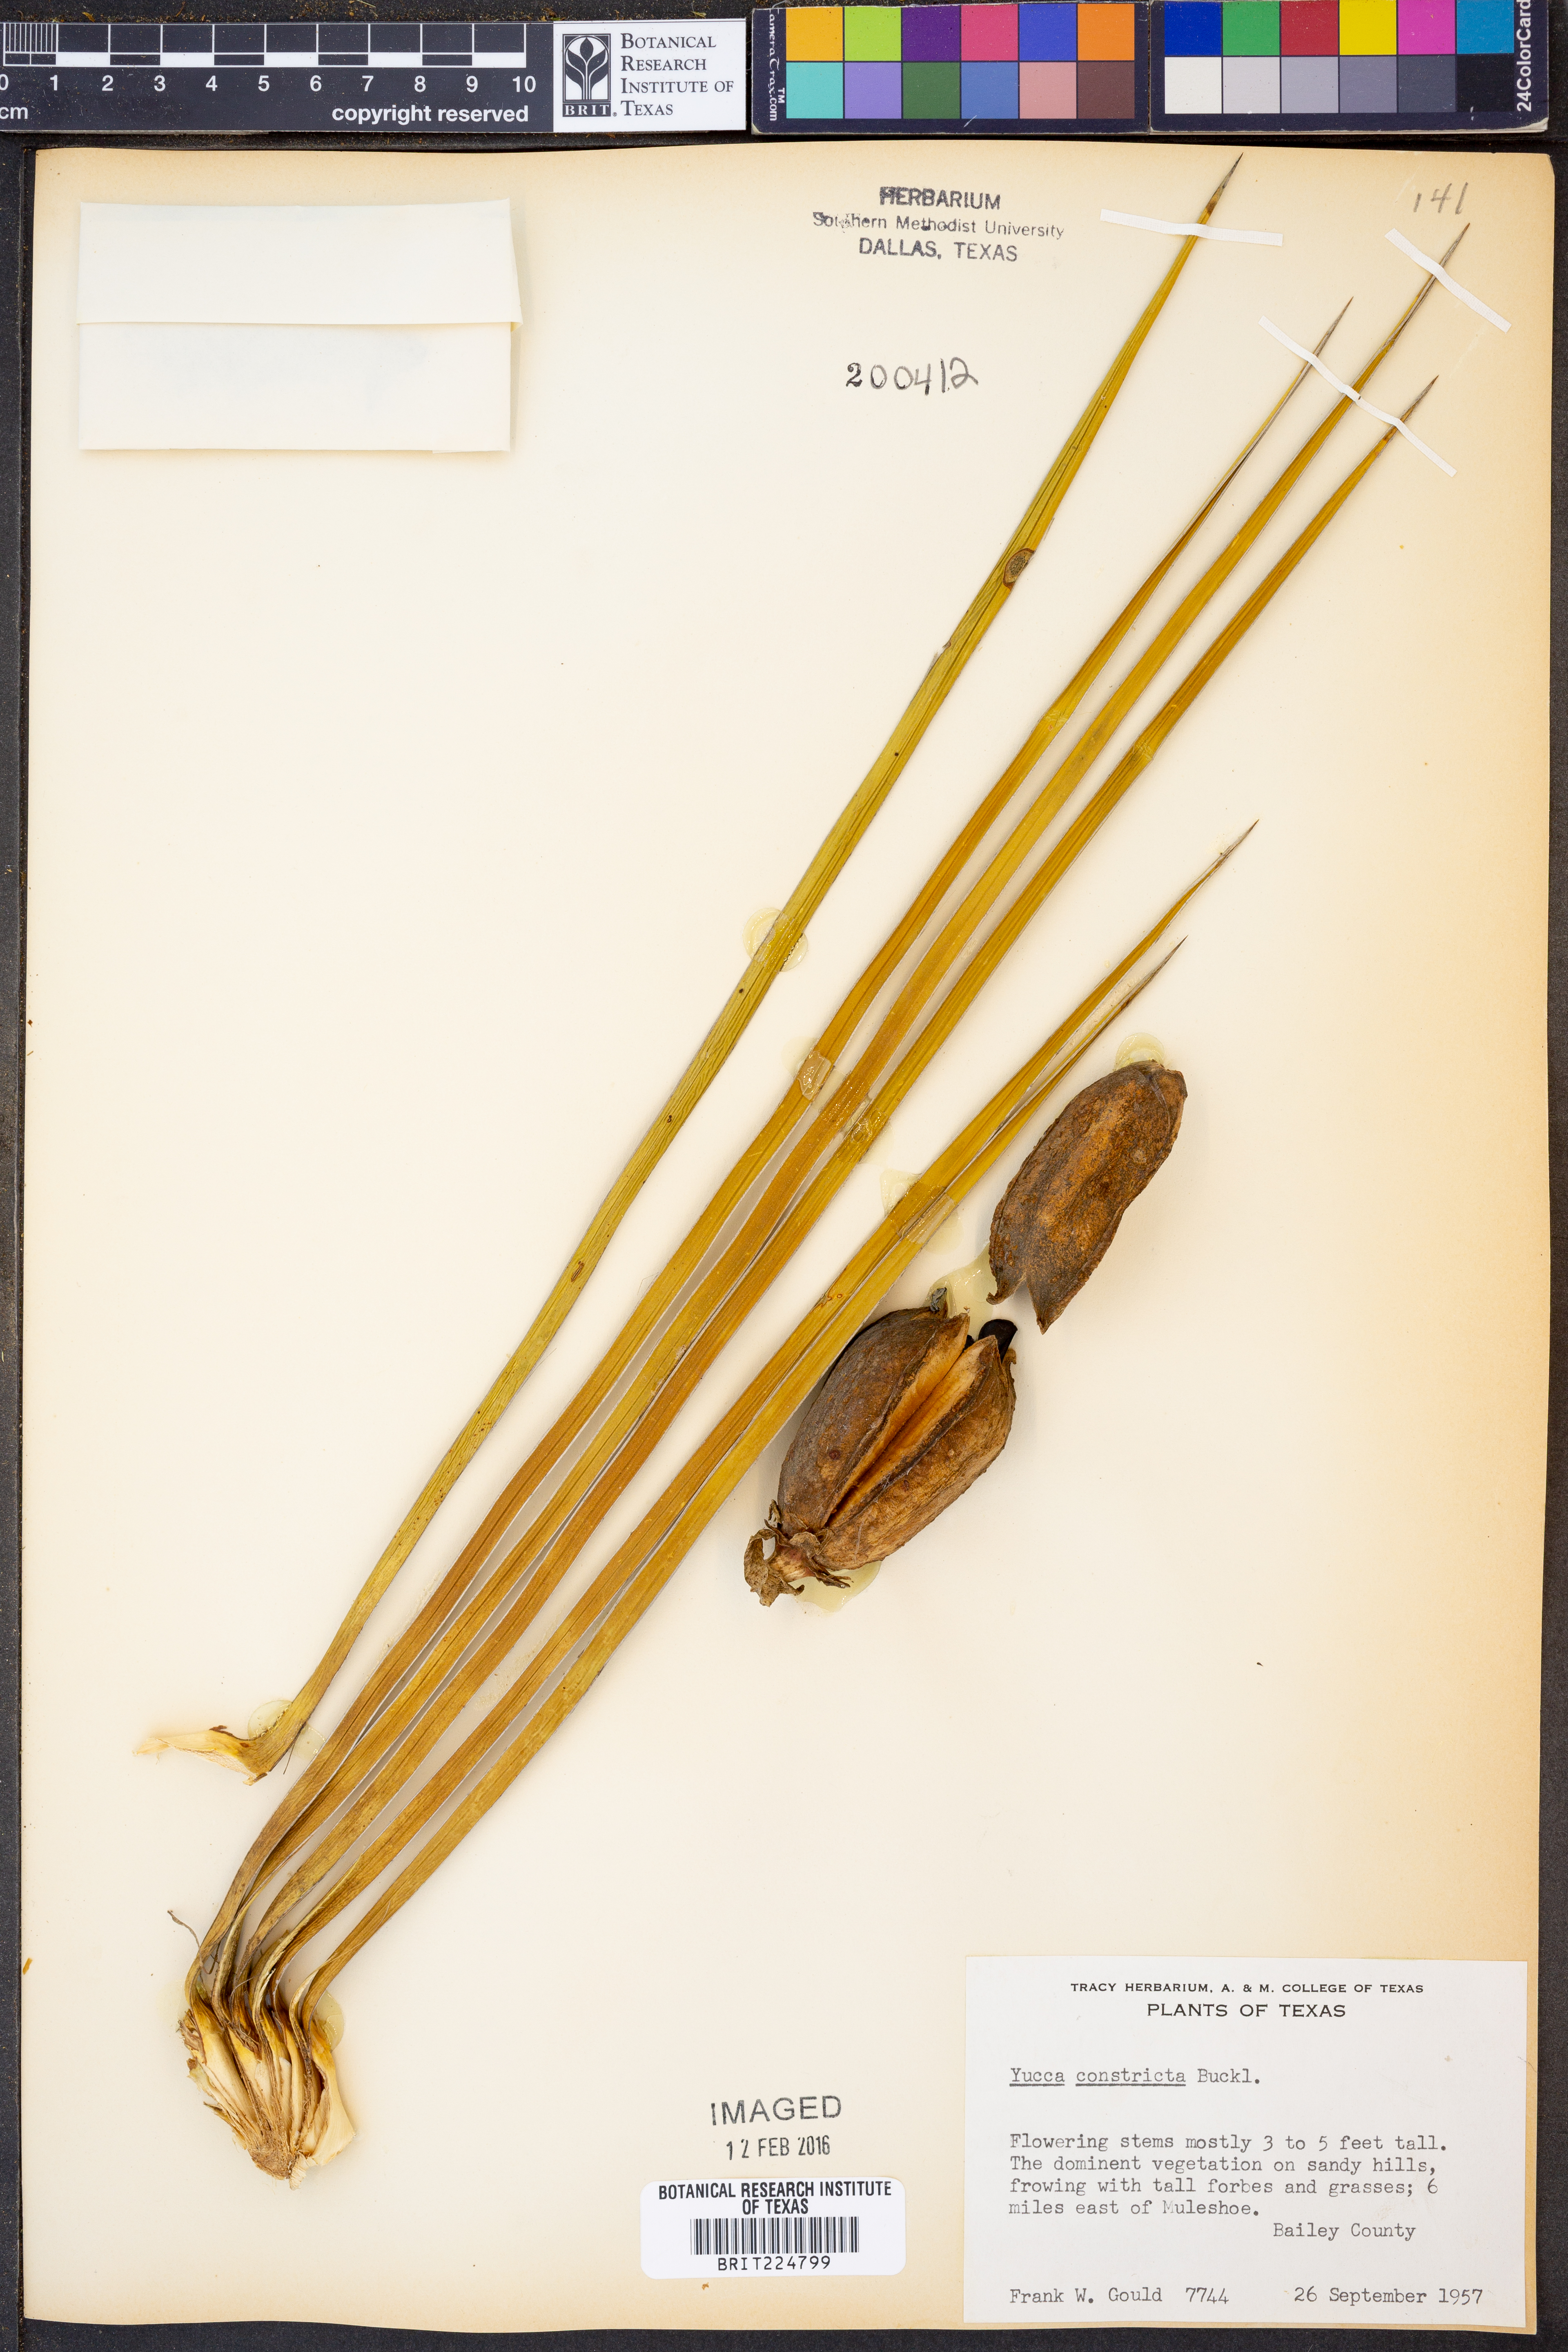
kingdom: Plantae
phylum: Tracheophyta
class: Liliopsida
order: Asparagales
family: Asparagaceae
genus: Yucca
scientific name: Yucca constricta
